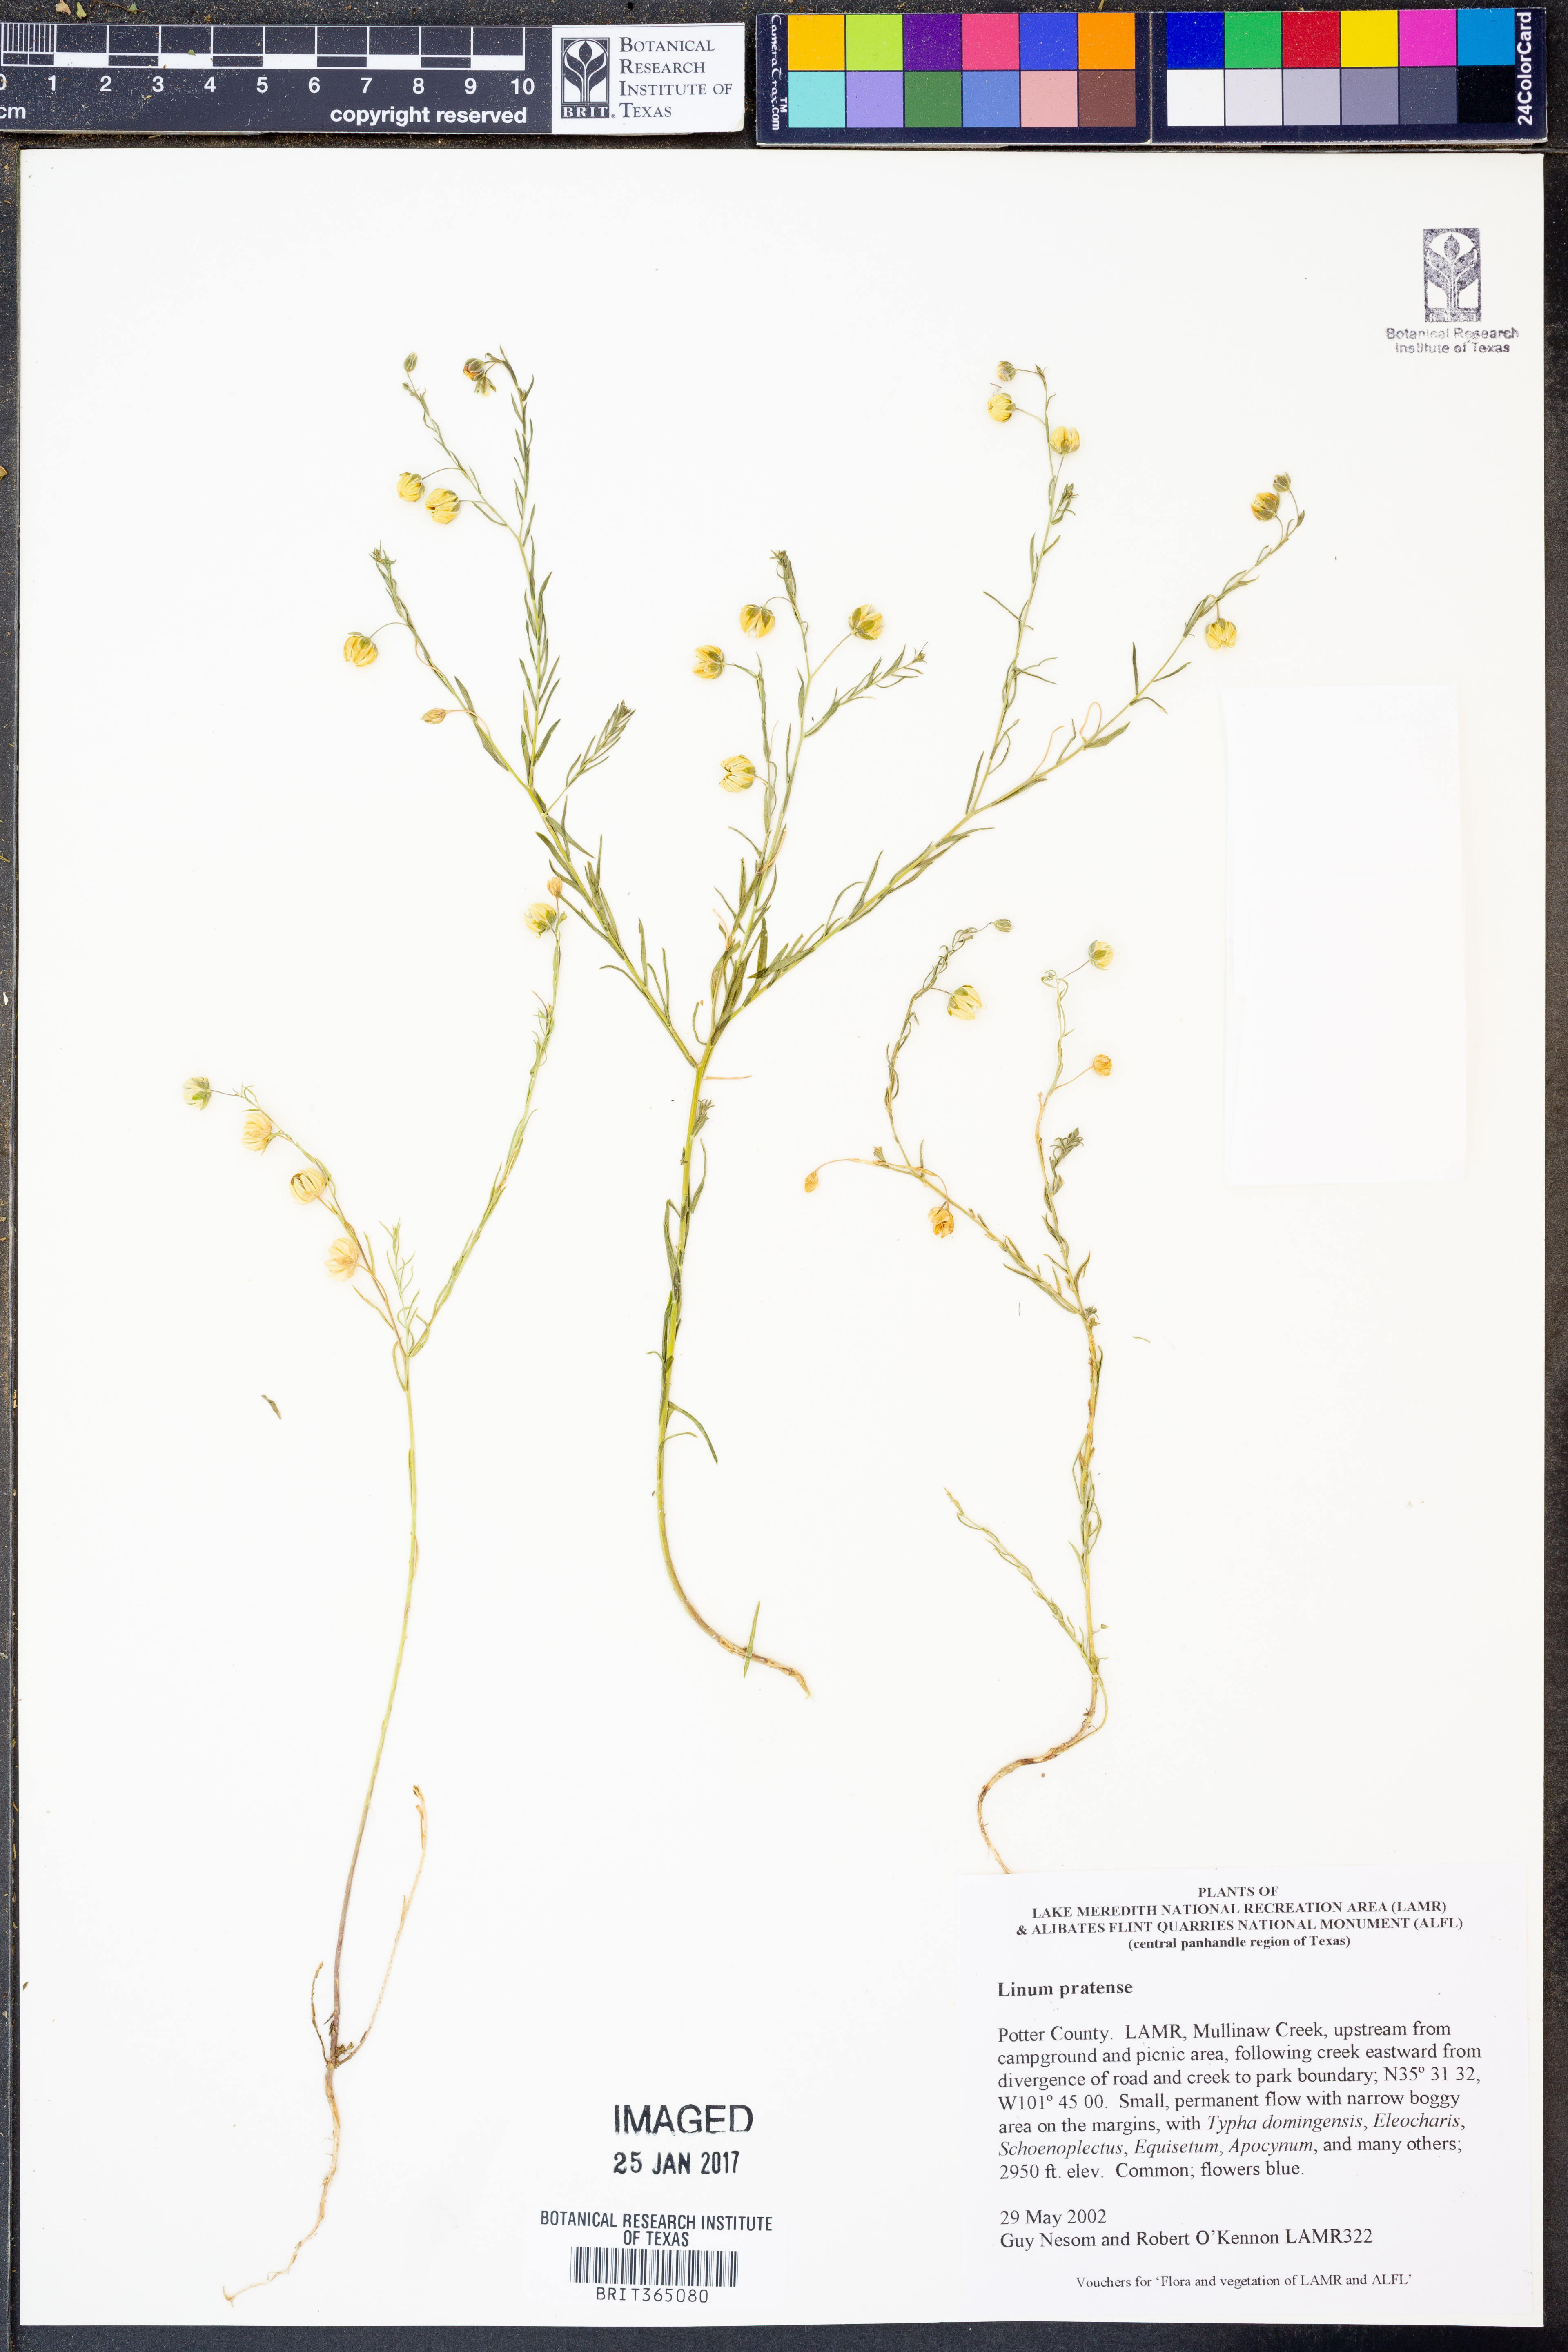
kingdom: Plantae
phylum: Tracheophyta
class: Magnoliopsida
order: Malpighiales
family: Linaceae
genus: Linum
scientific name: Linum pratense
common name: Norton's flax
